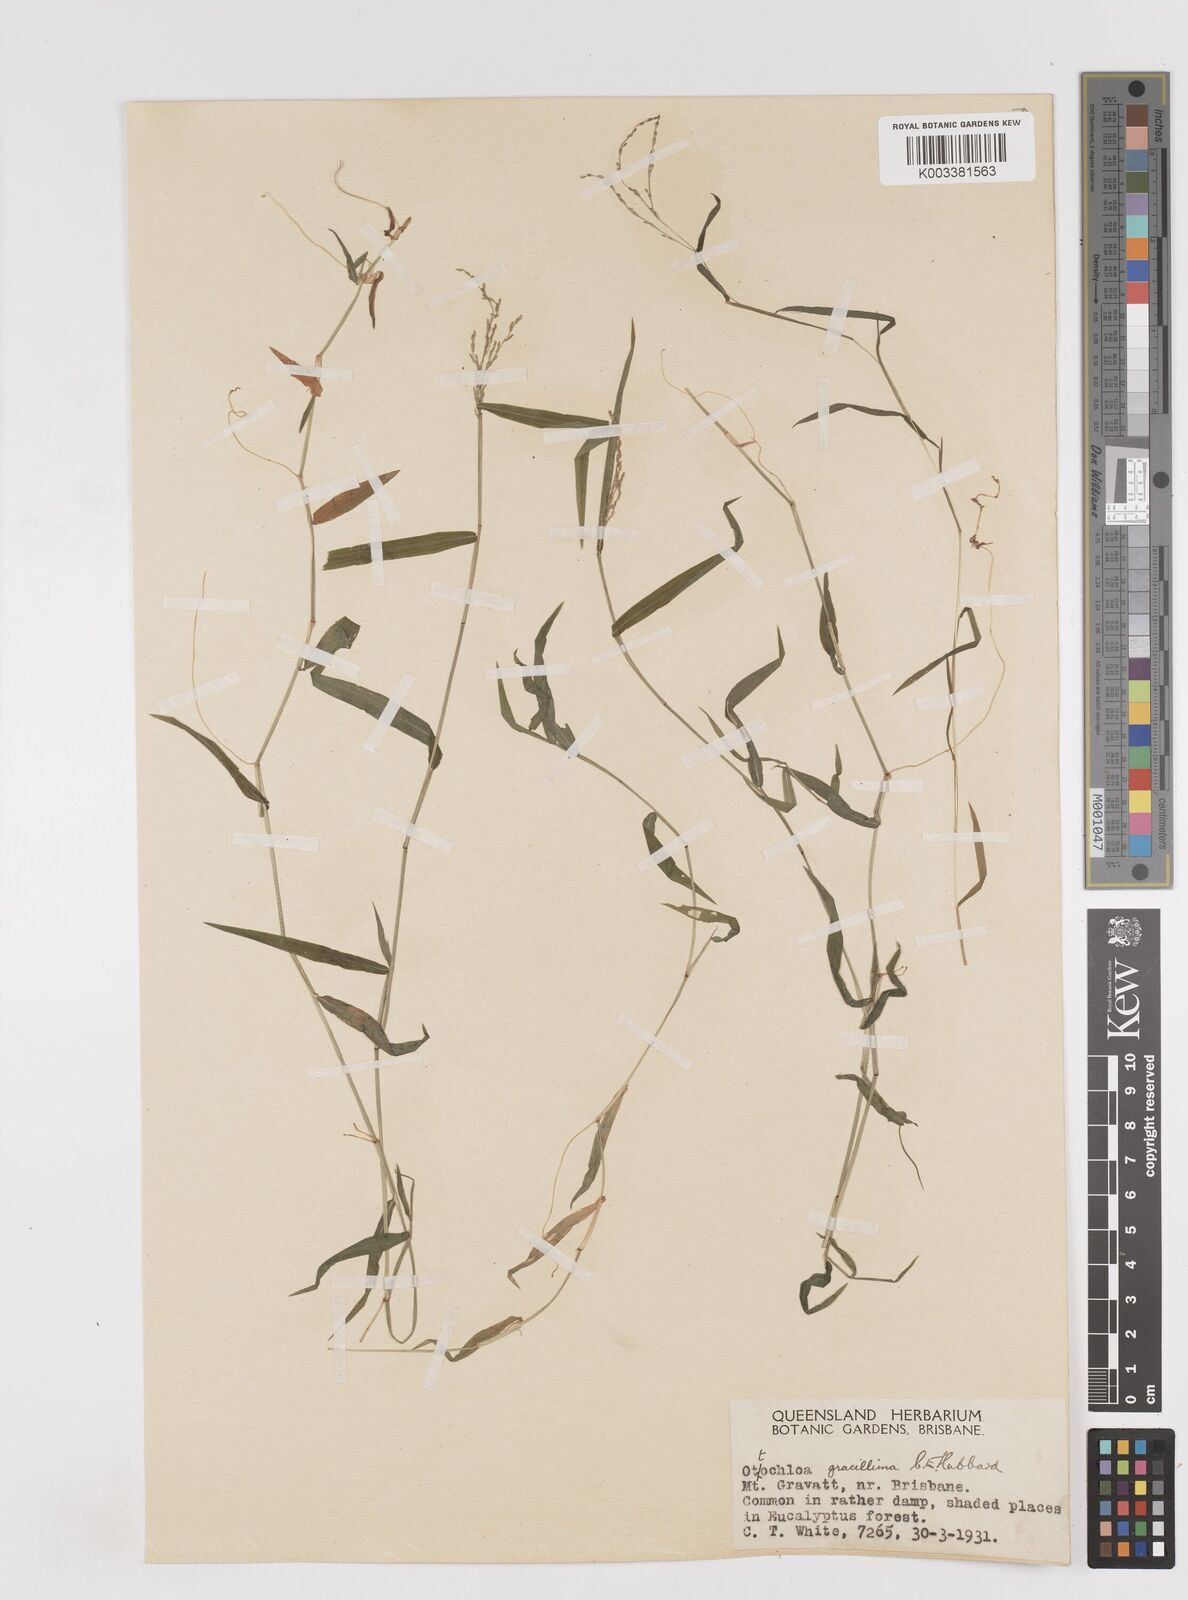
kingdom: Plantae
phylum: Tracheophyta
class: Liliopsida
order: Poales
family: Poaceae
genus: Ottochloa
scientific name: Ottochloa gracillima
